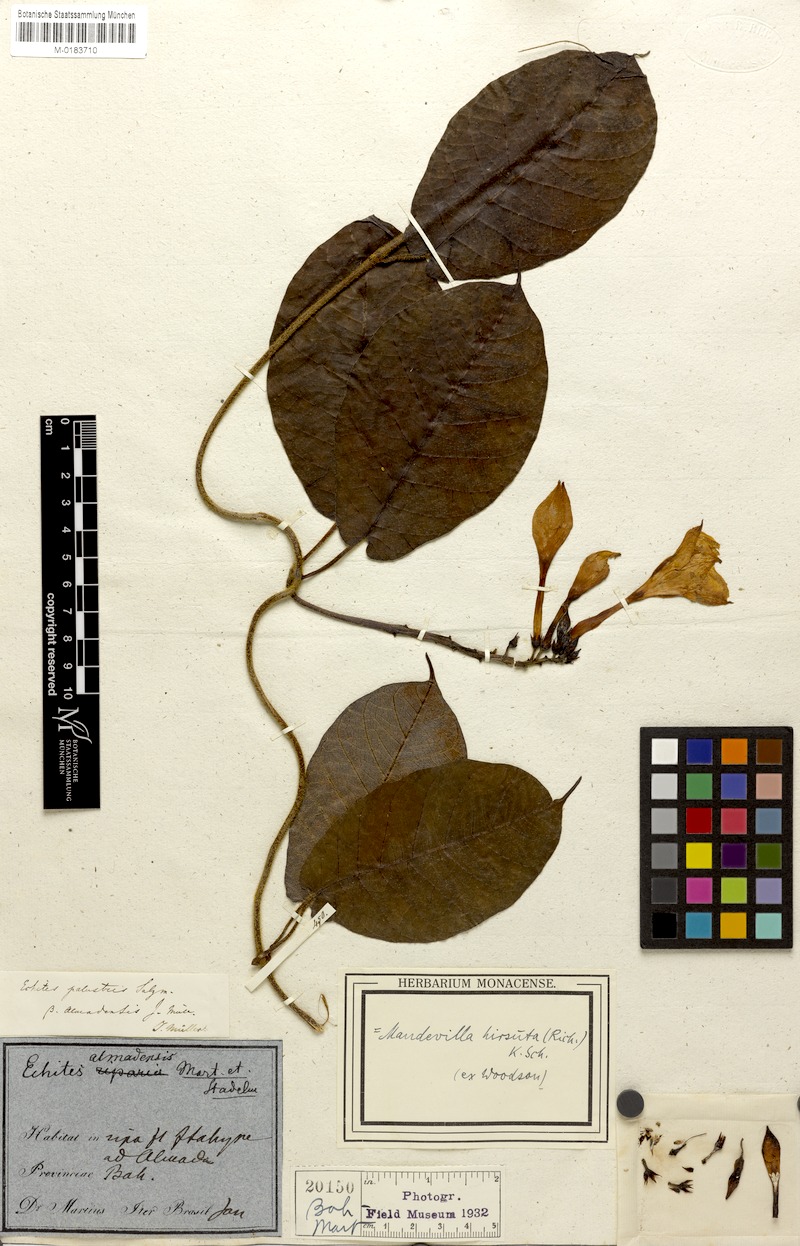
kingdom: Plantae
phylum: Tracheophyta
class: Magnoliopsida
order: Gentianales
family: Apocynaceae
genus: Mandevilla
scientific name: Mandevilla hirsuta
